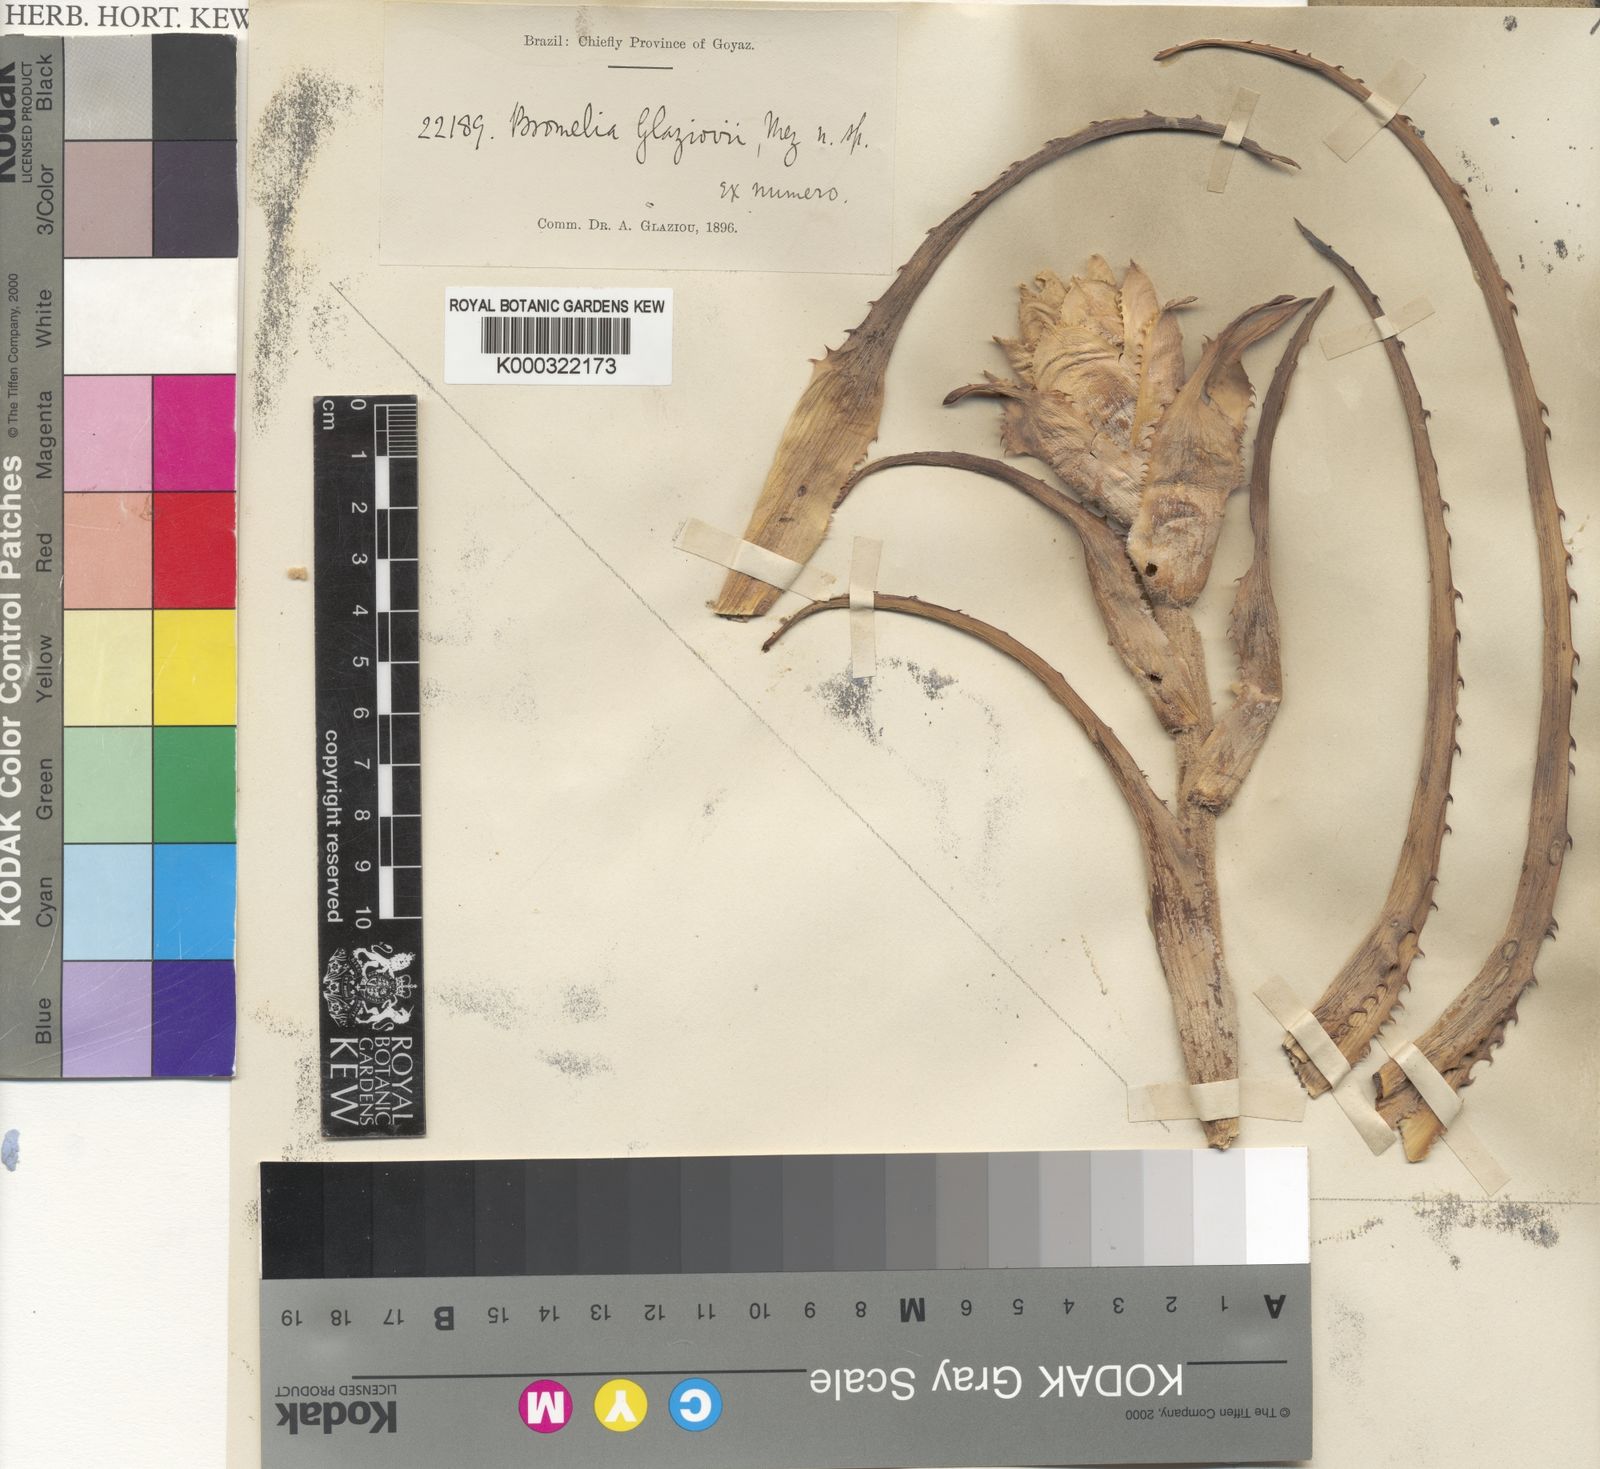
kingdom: Plantae
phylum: Tracheophyta
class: Liliopsida
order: Poales
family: Bromeliaceae
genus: Bromelia
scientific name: Bromelia glaziovii
